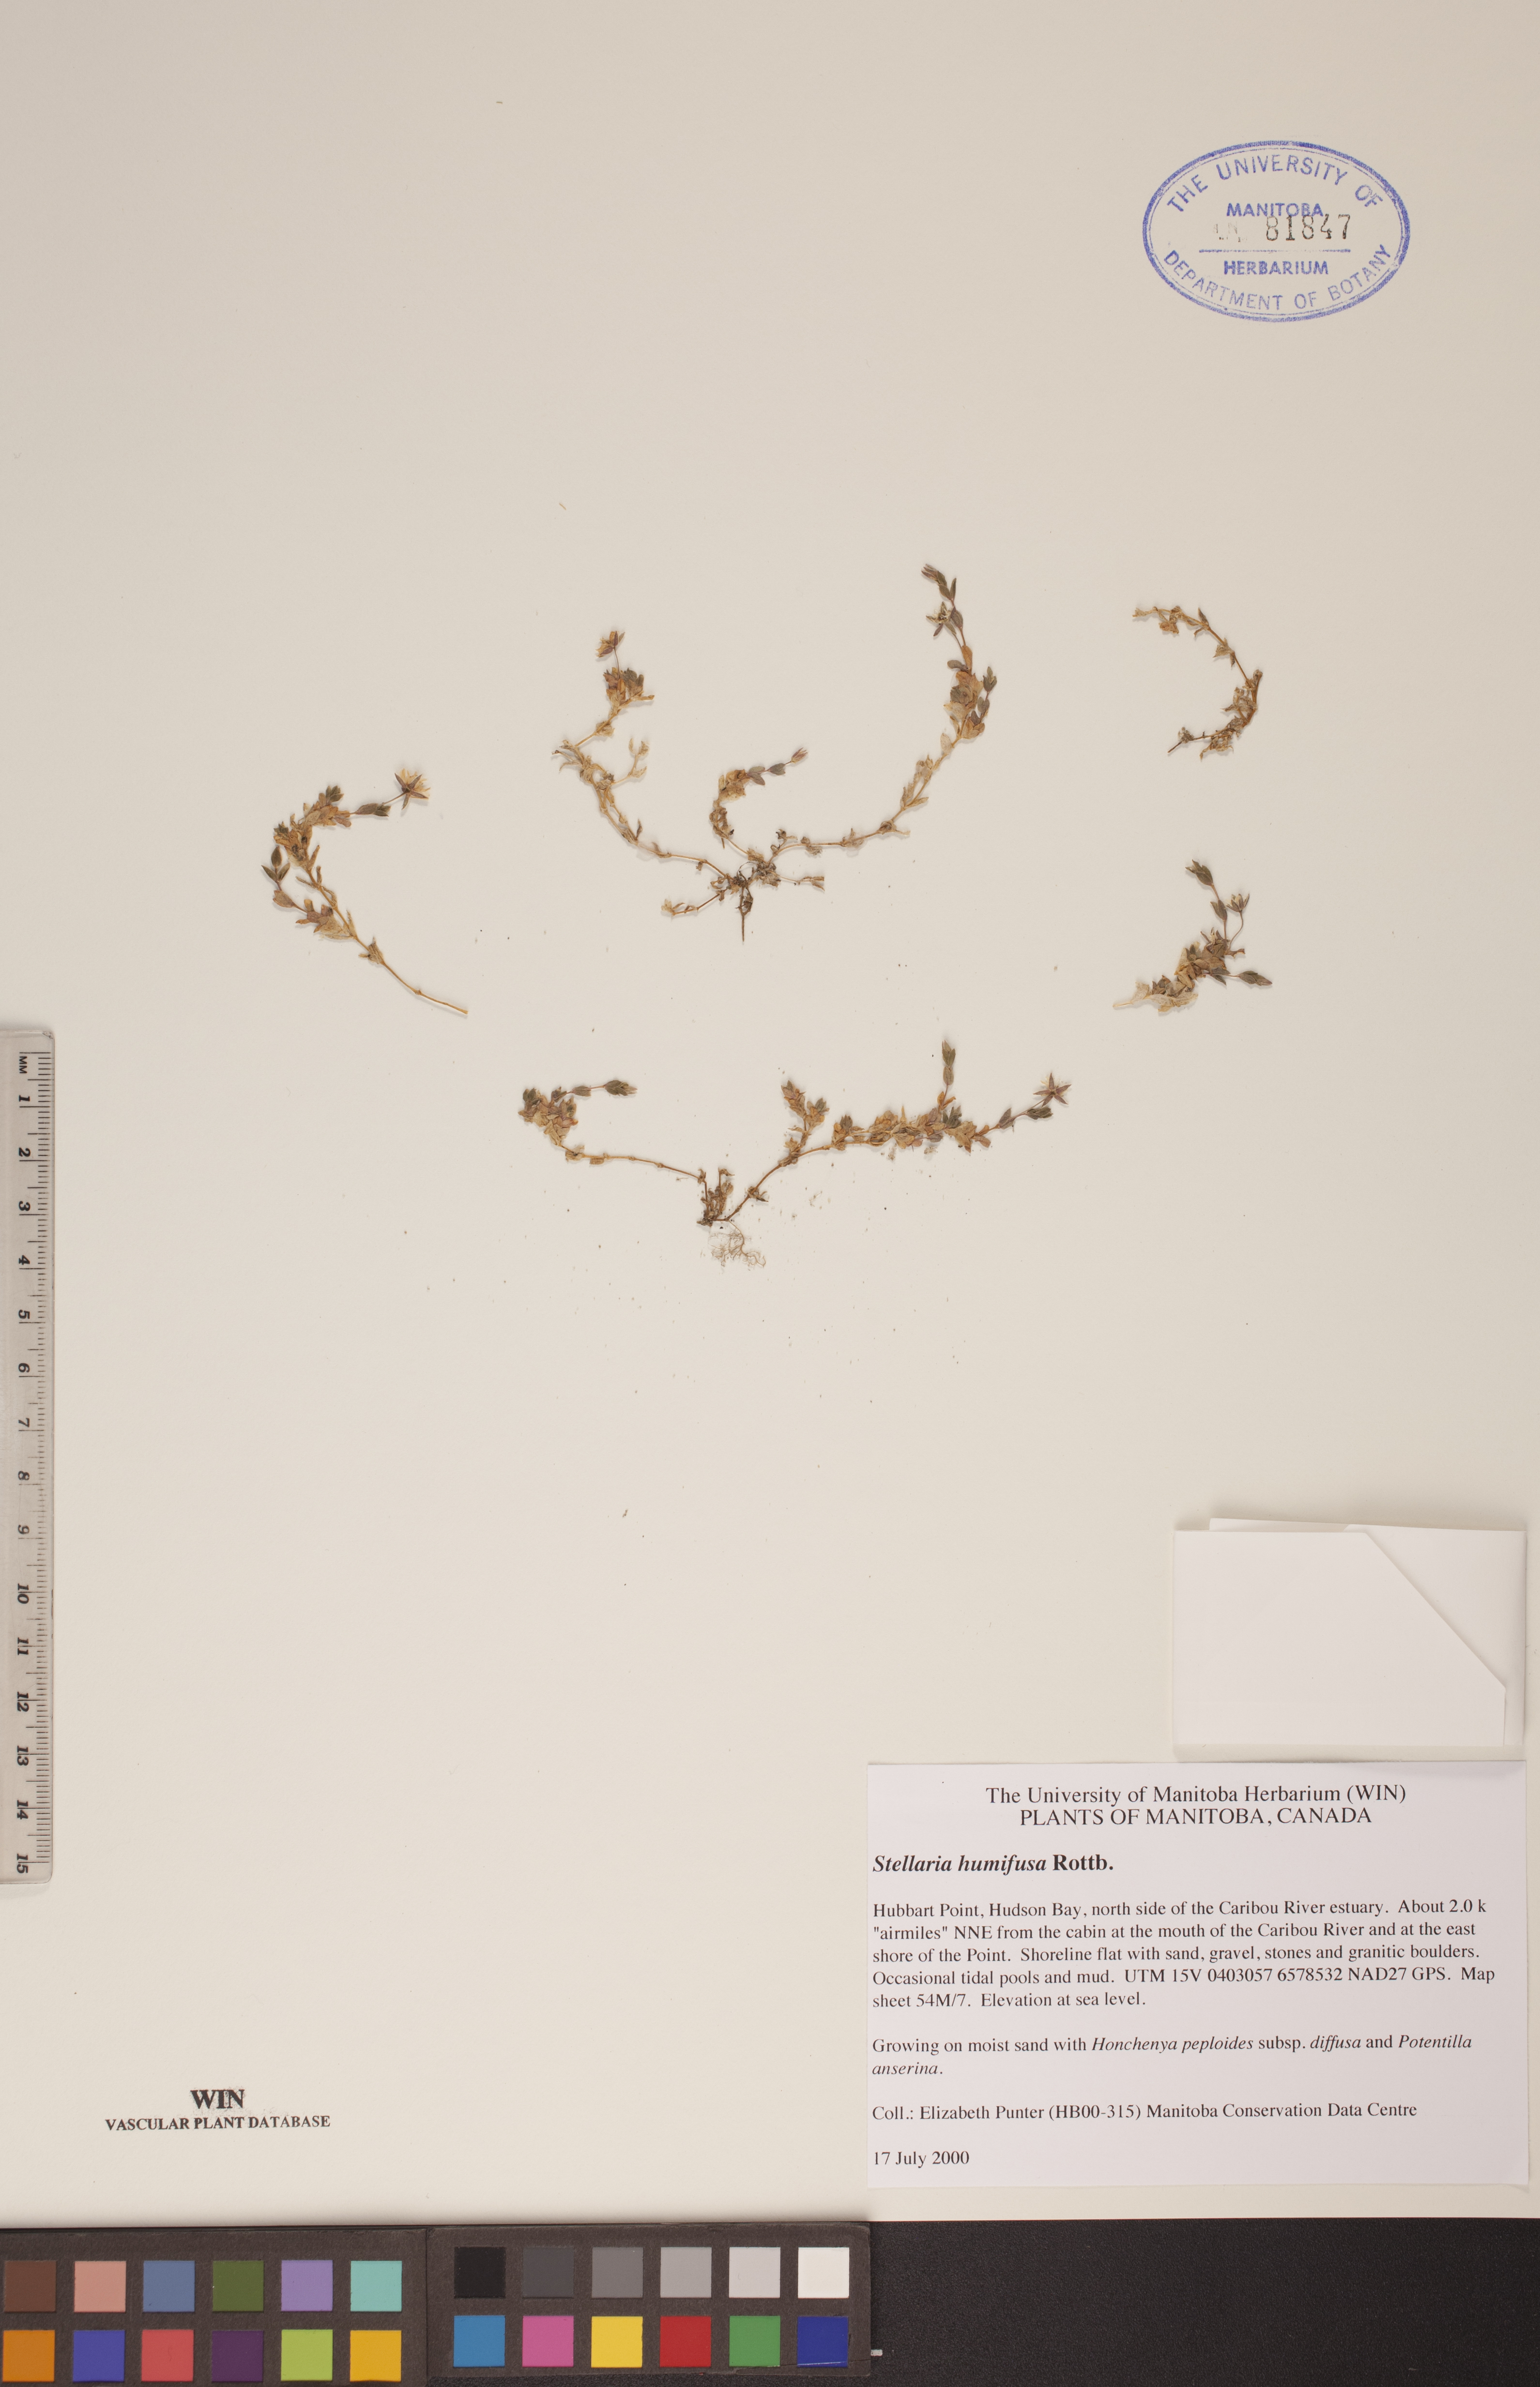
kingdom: Plantae
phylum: Tracheophyta
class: Magnoliopsida
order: Caryophyllales
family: Caryophyllaceae
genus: Stellaria
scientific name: Stellaria humifusa
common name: Creeping starwort
